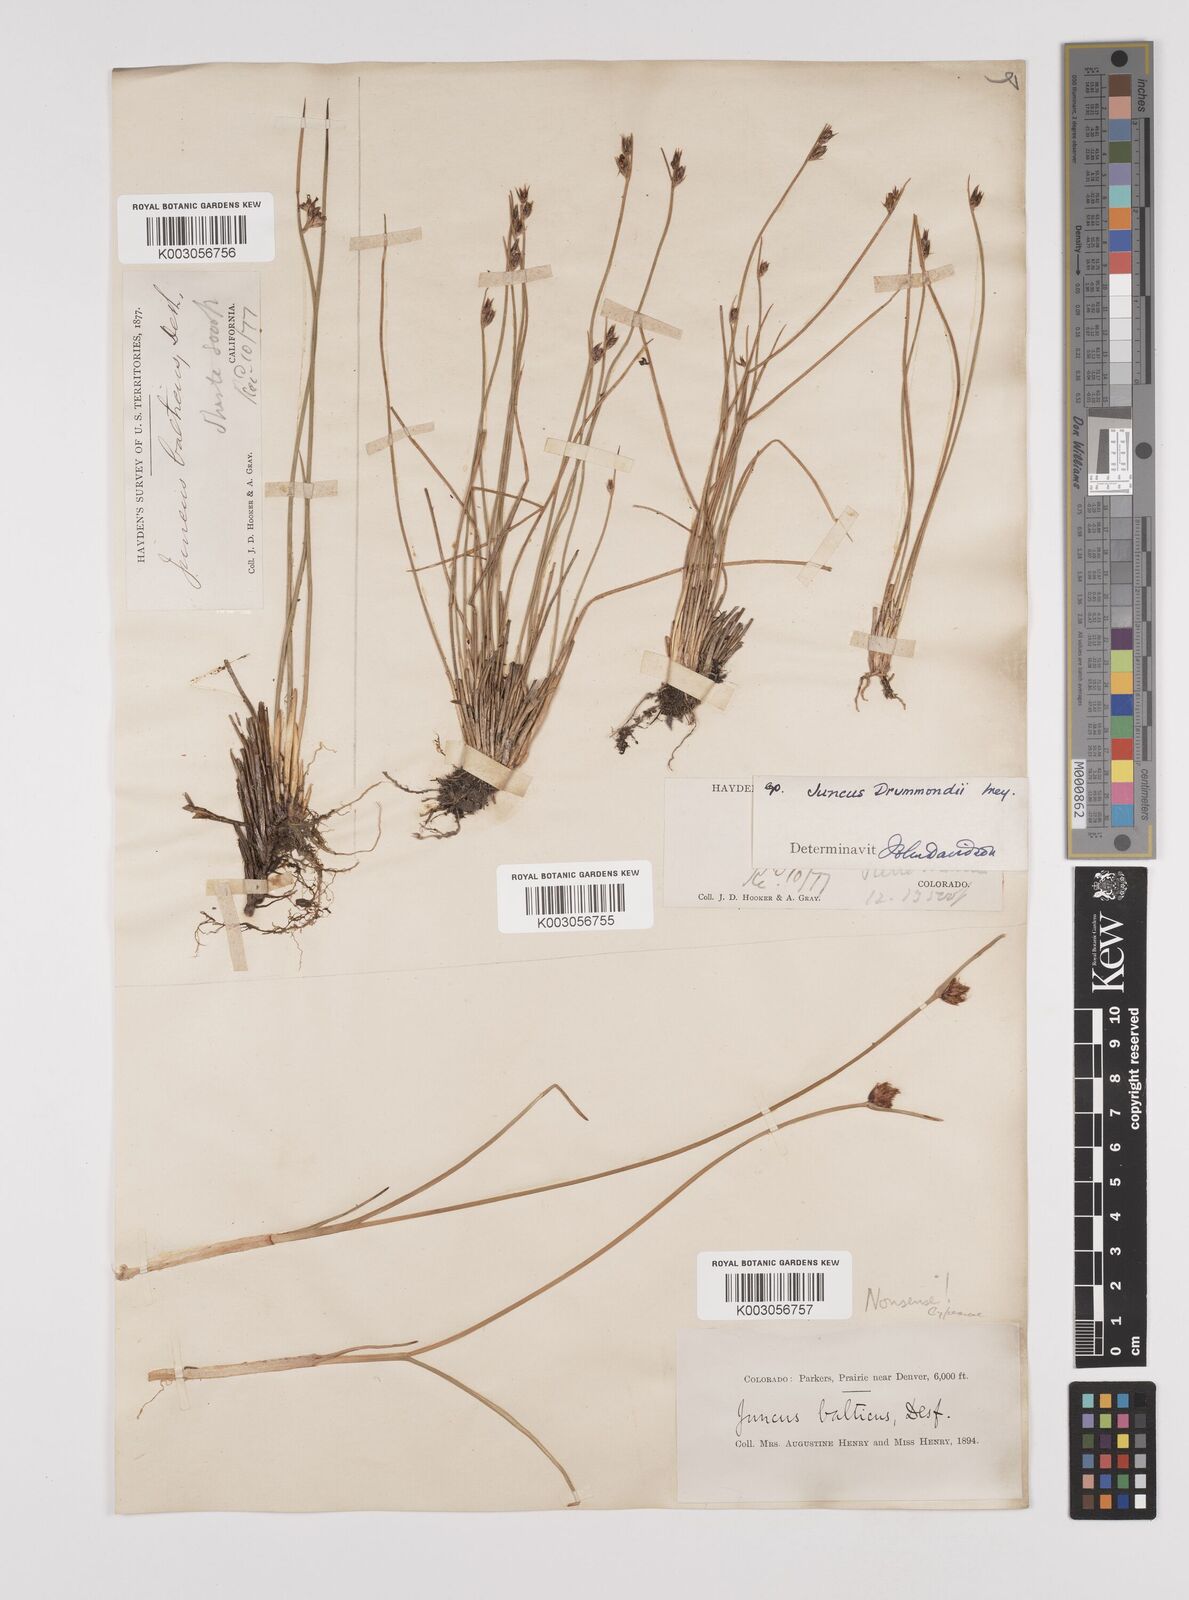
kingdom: Plantae
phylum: Tracheophyta
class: Liliopsida
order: Poales
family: Juncaceae
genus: Juncus
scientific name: Juncus drummondii
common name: Drummond's rush
